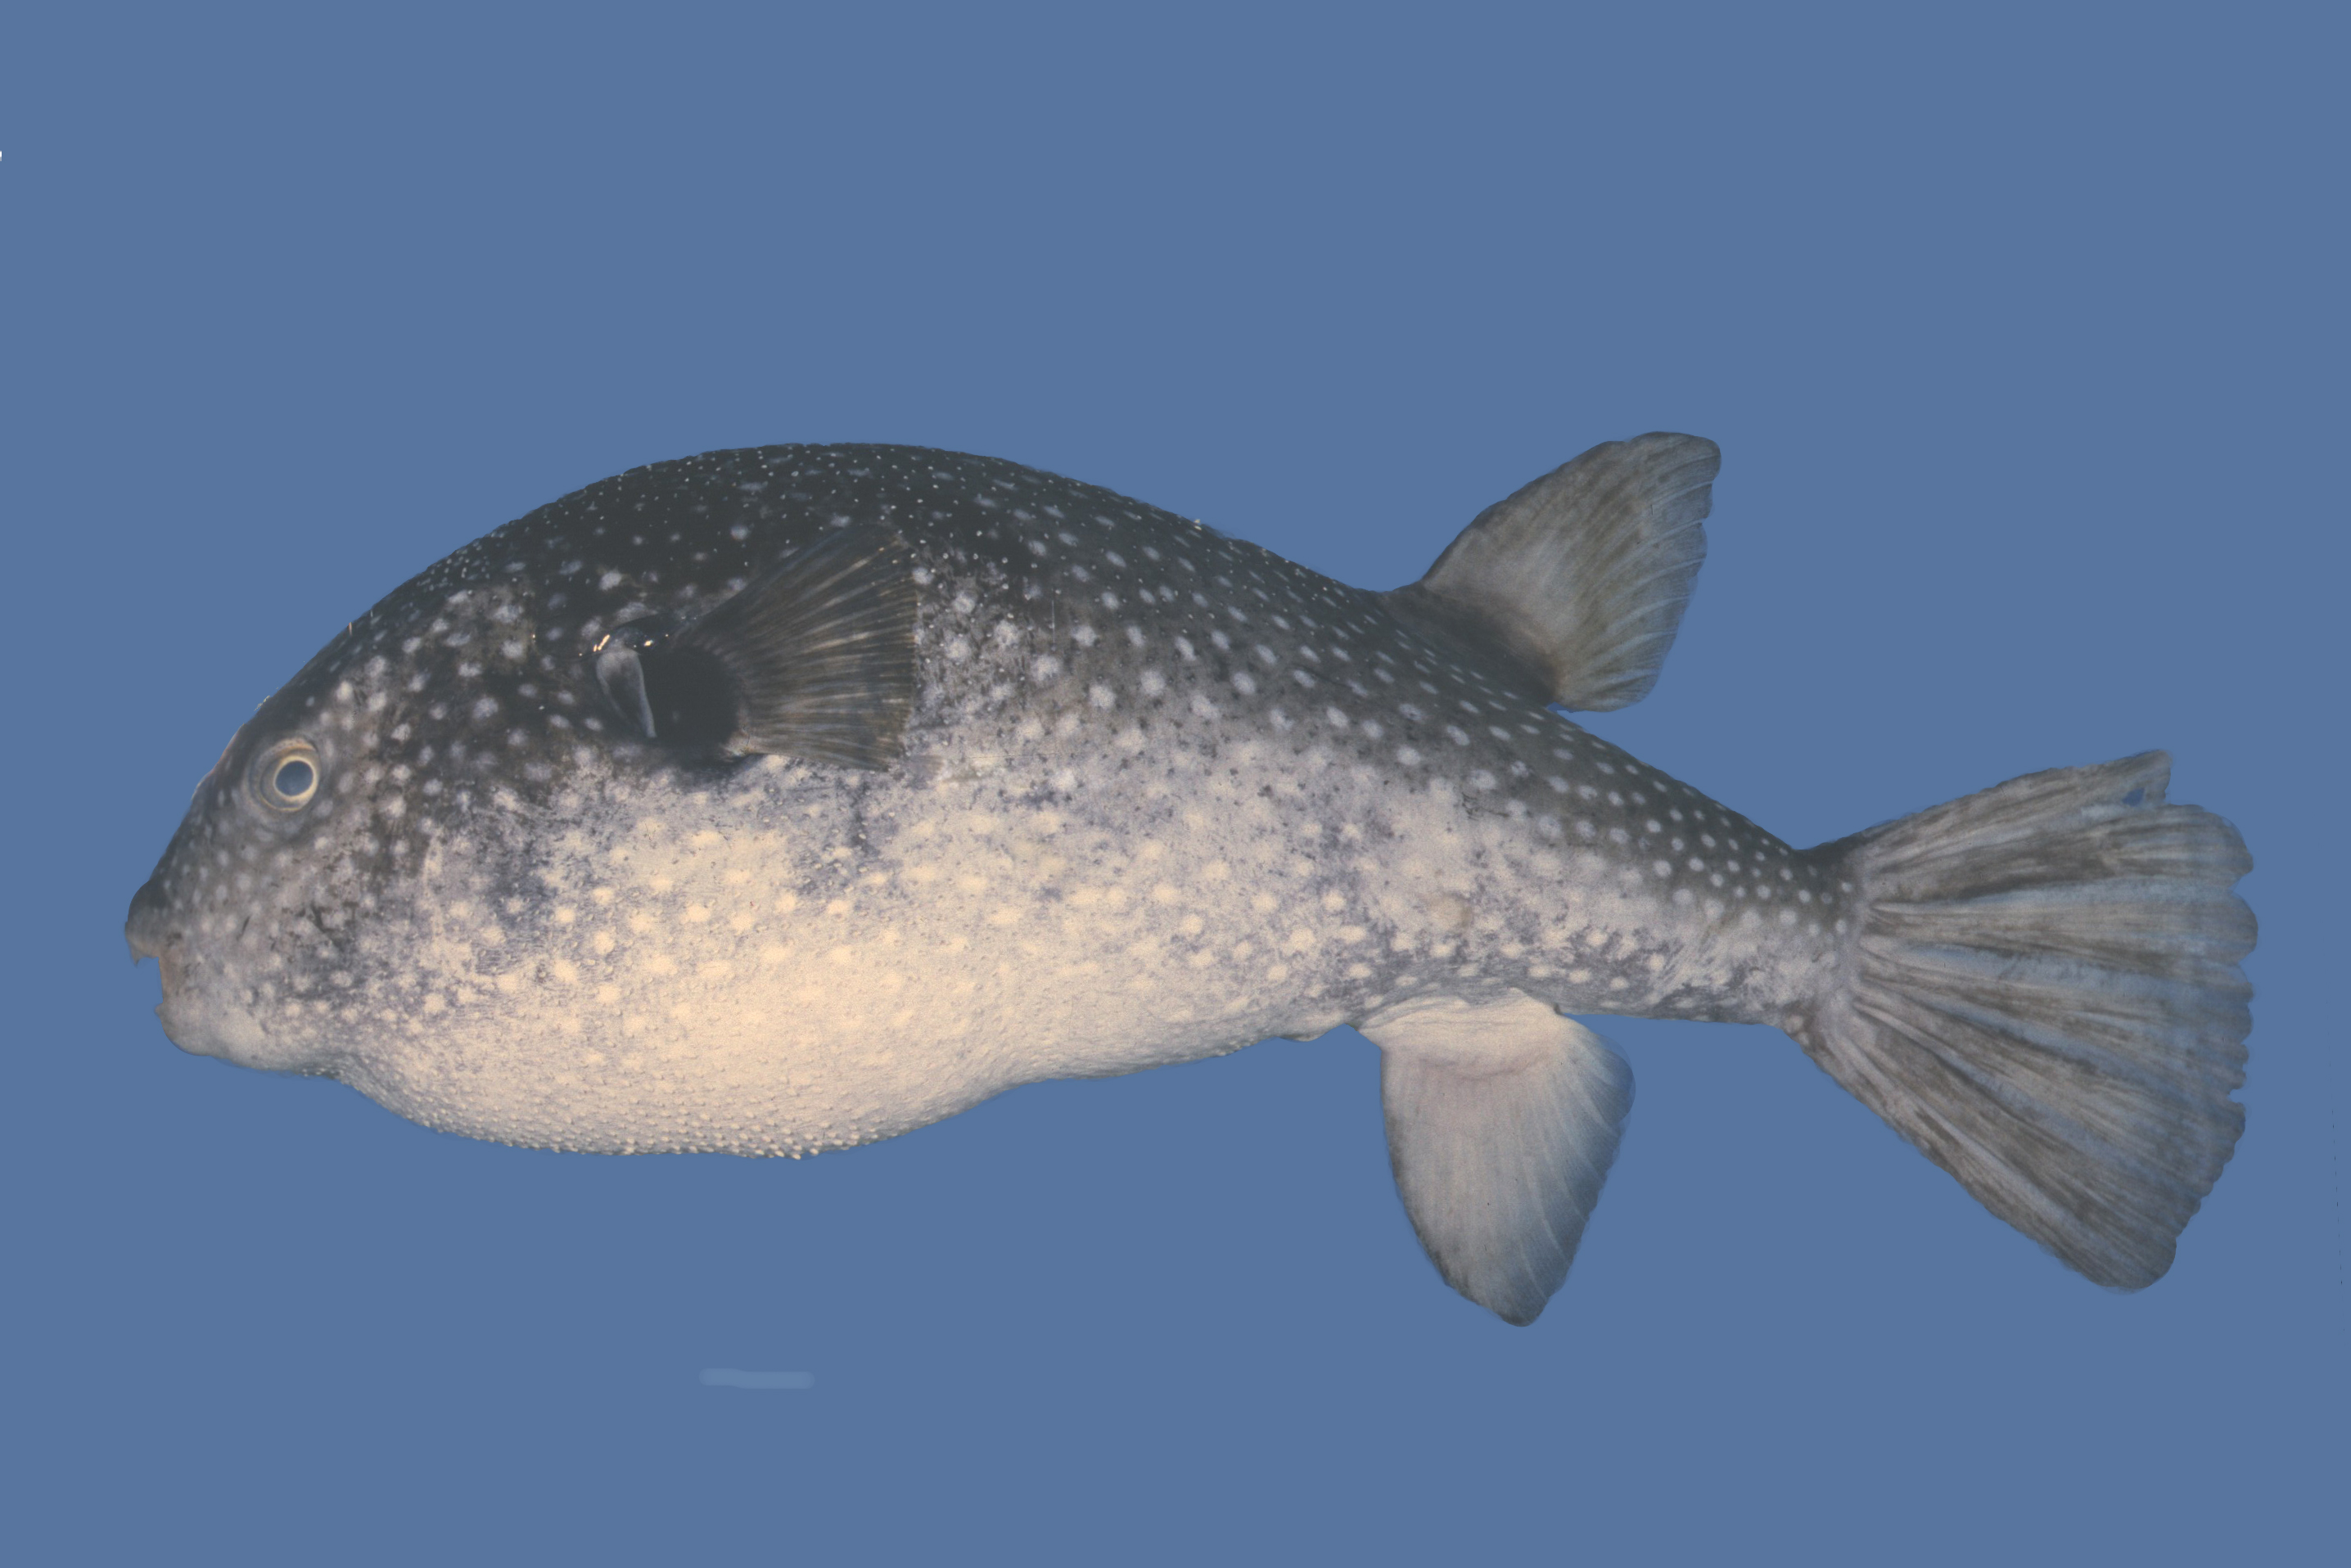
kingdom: Animalia
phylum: Chordata
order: Tetraodontiformes
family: Tetraodontidae
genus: Arothron
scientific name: Arothron firmamentum
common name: Starry toado
